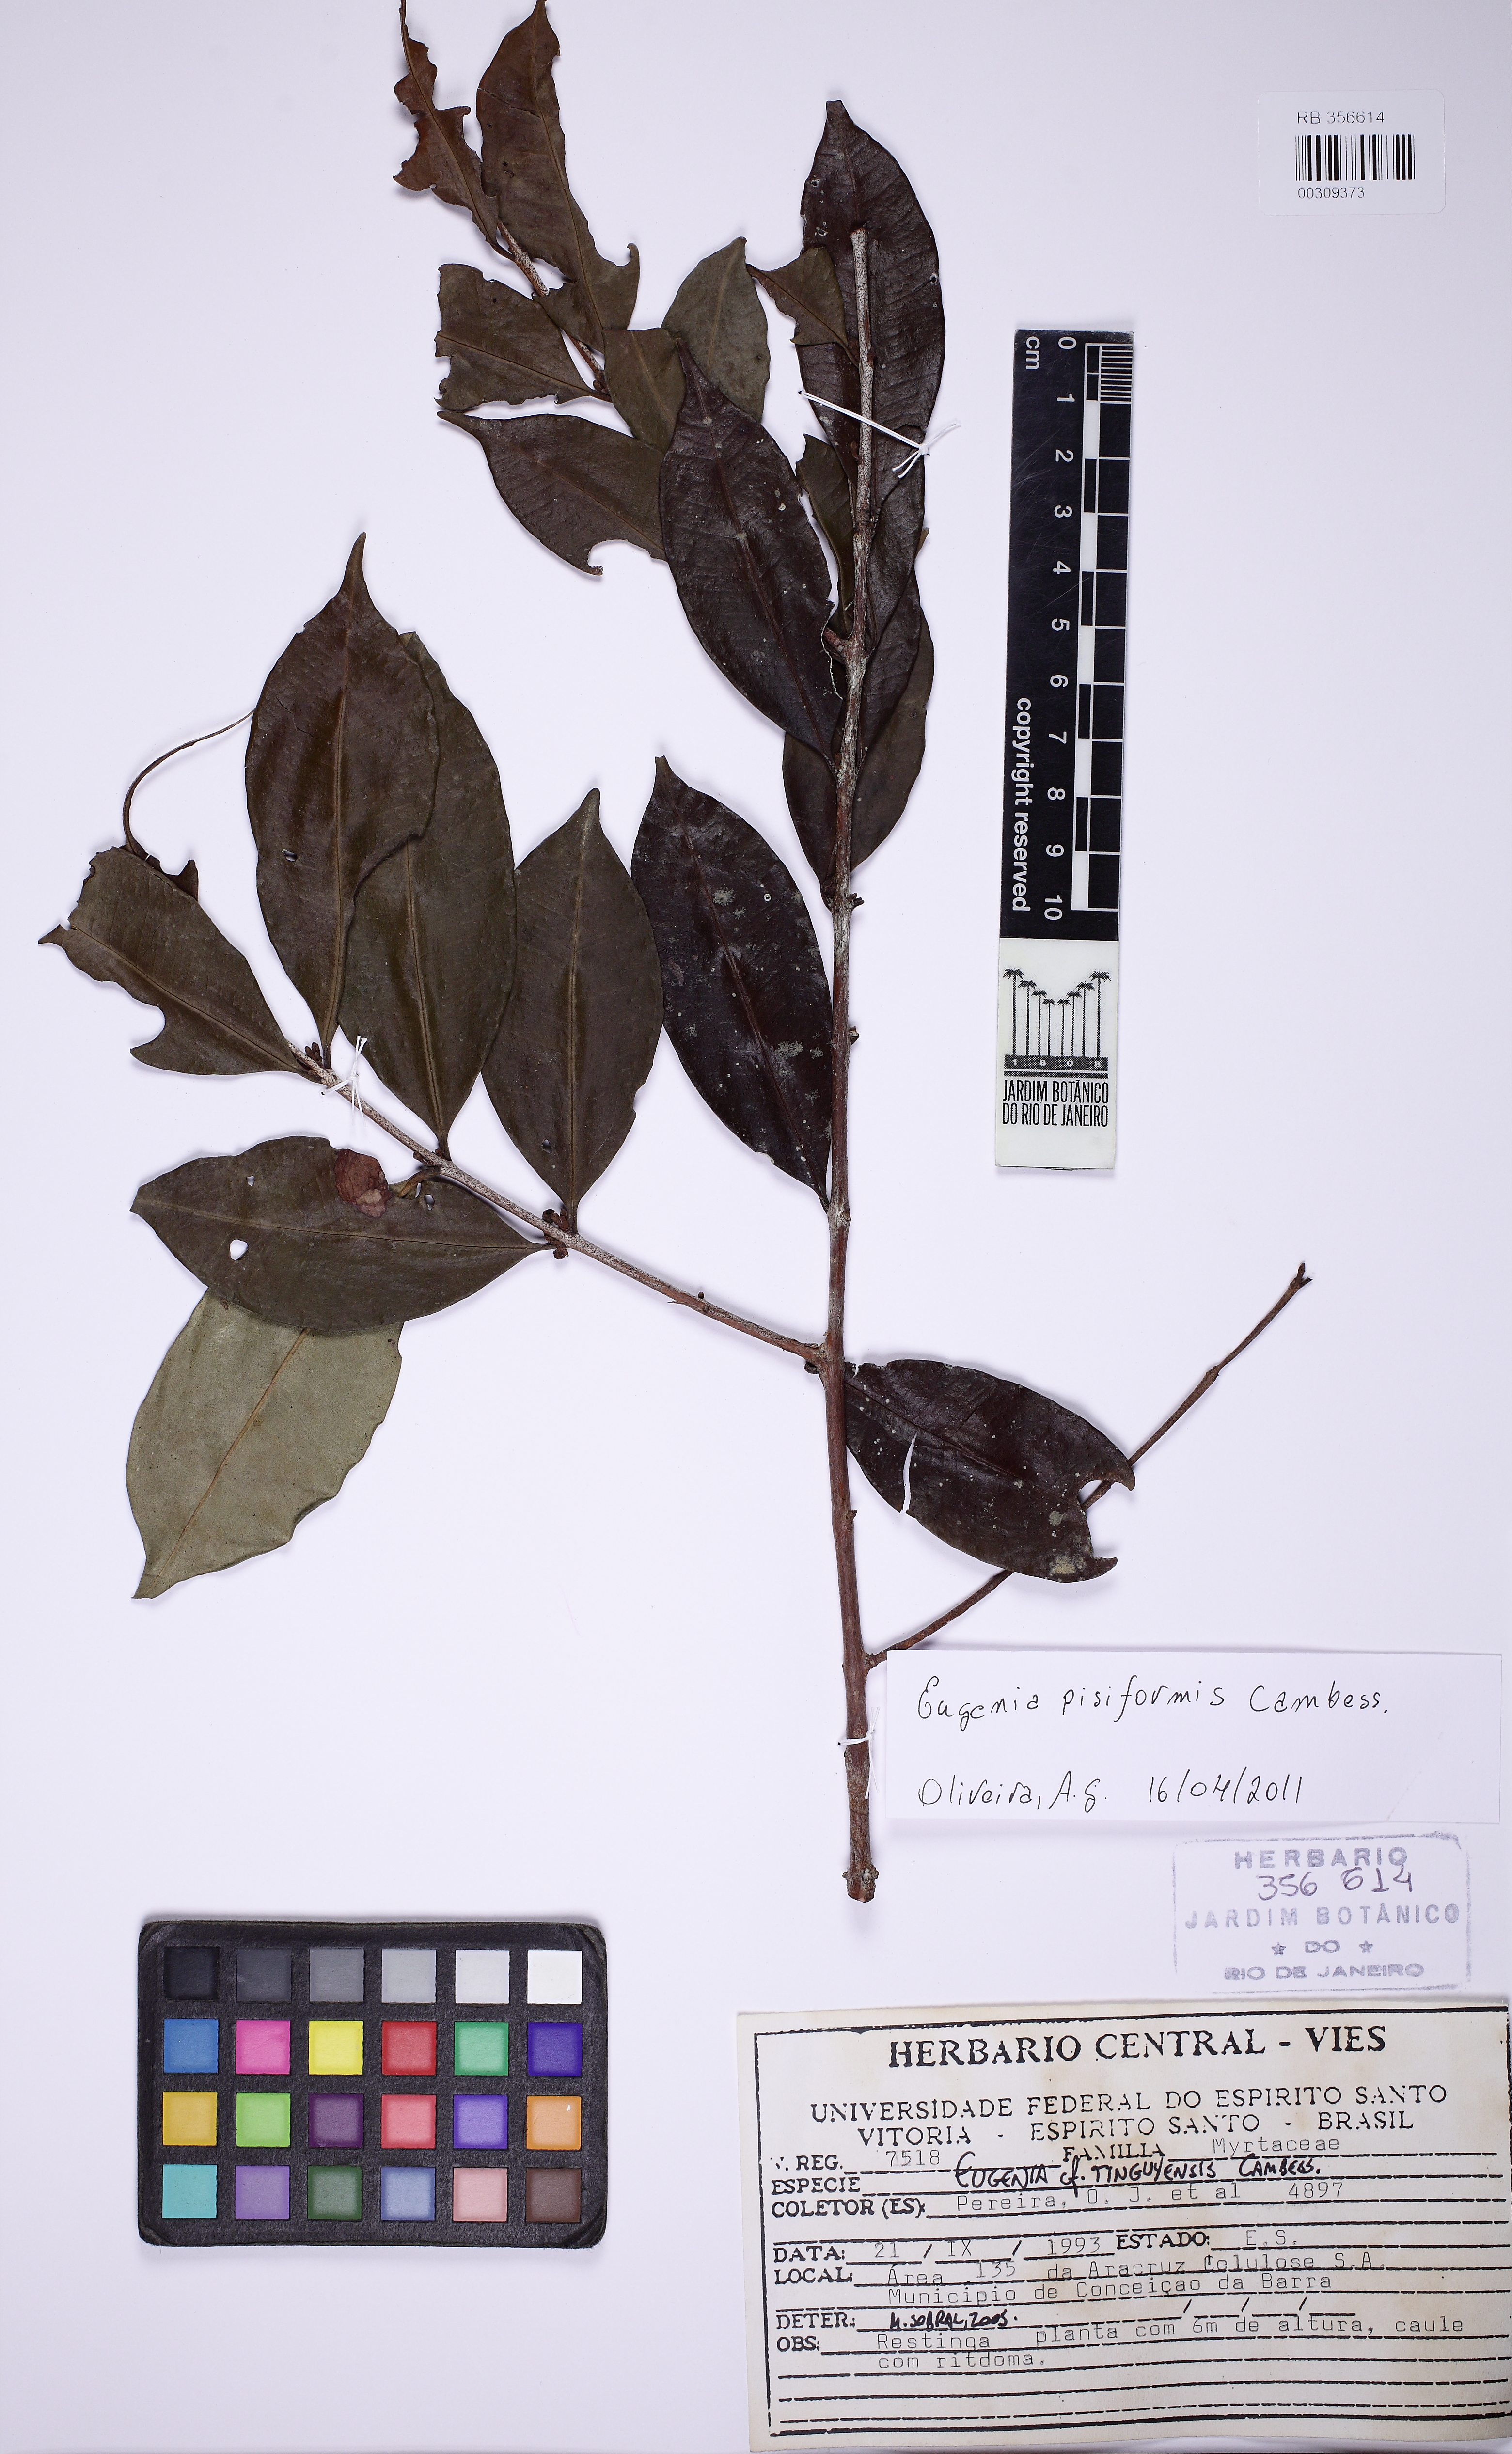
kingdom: Plantae
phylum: Tracheophyta
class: Magnoliopsida
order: Myrtales
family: Myrtaceae
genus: Eugenia
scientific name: Eugenia pisiformis
